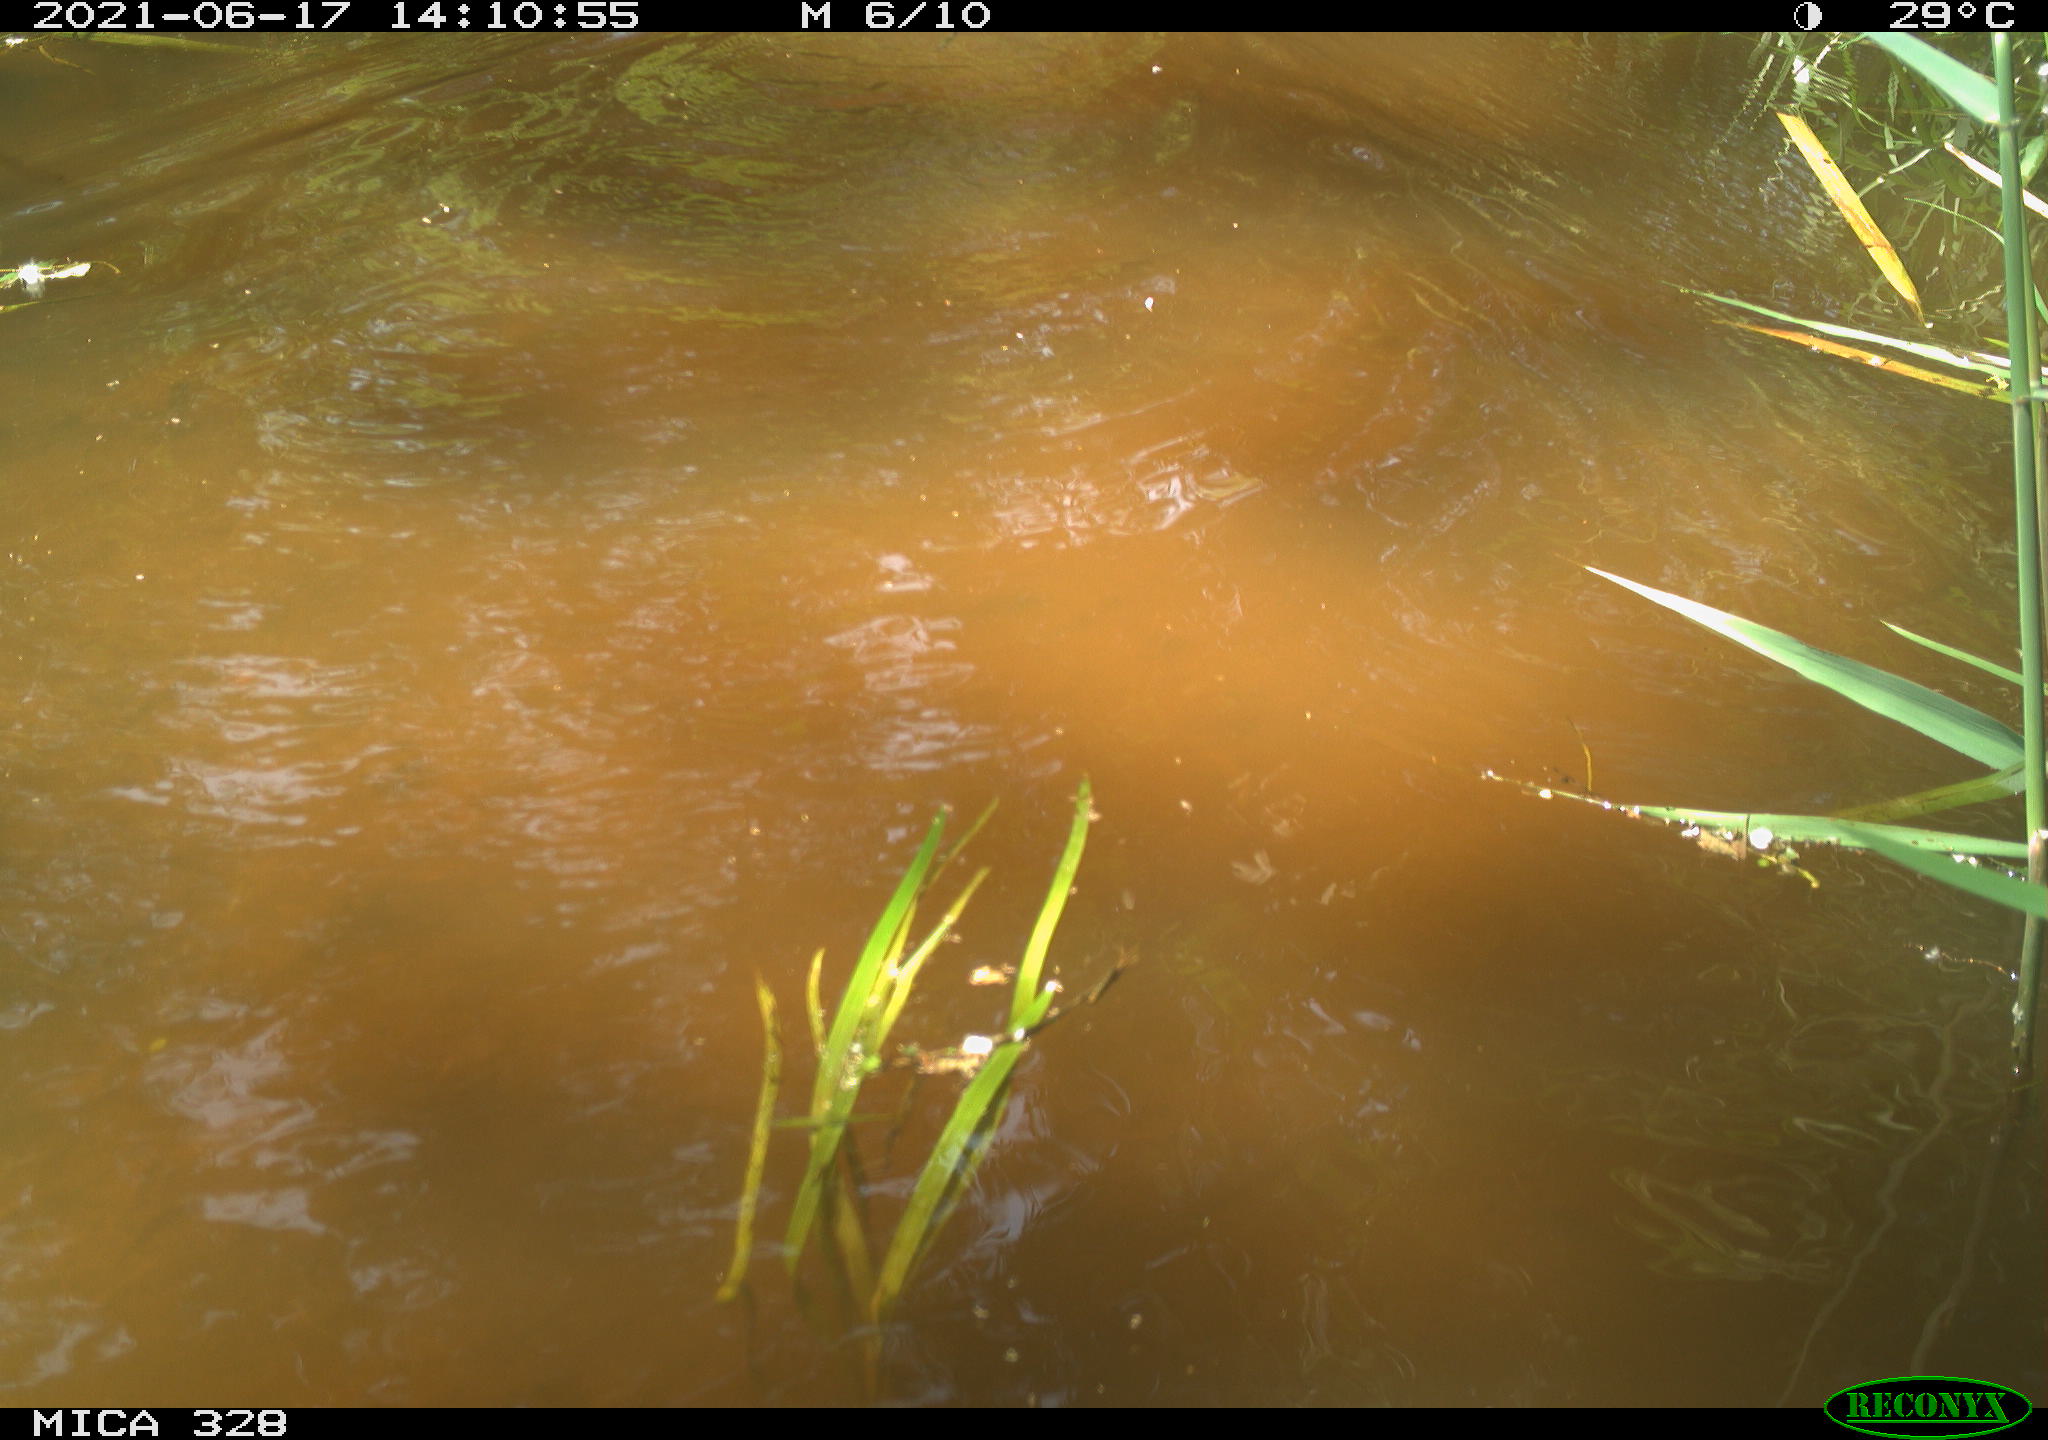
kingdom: Animalia
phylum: Chordata
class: Mammalia
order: Rodentia
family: Cricetidae
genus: Ondatra
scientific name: Ondatra zibethicus
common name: Muskrat
